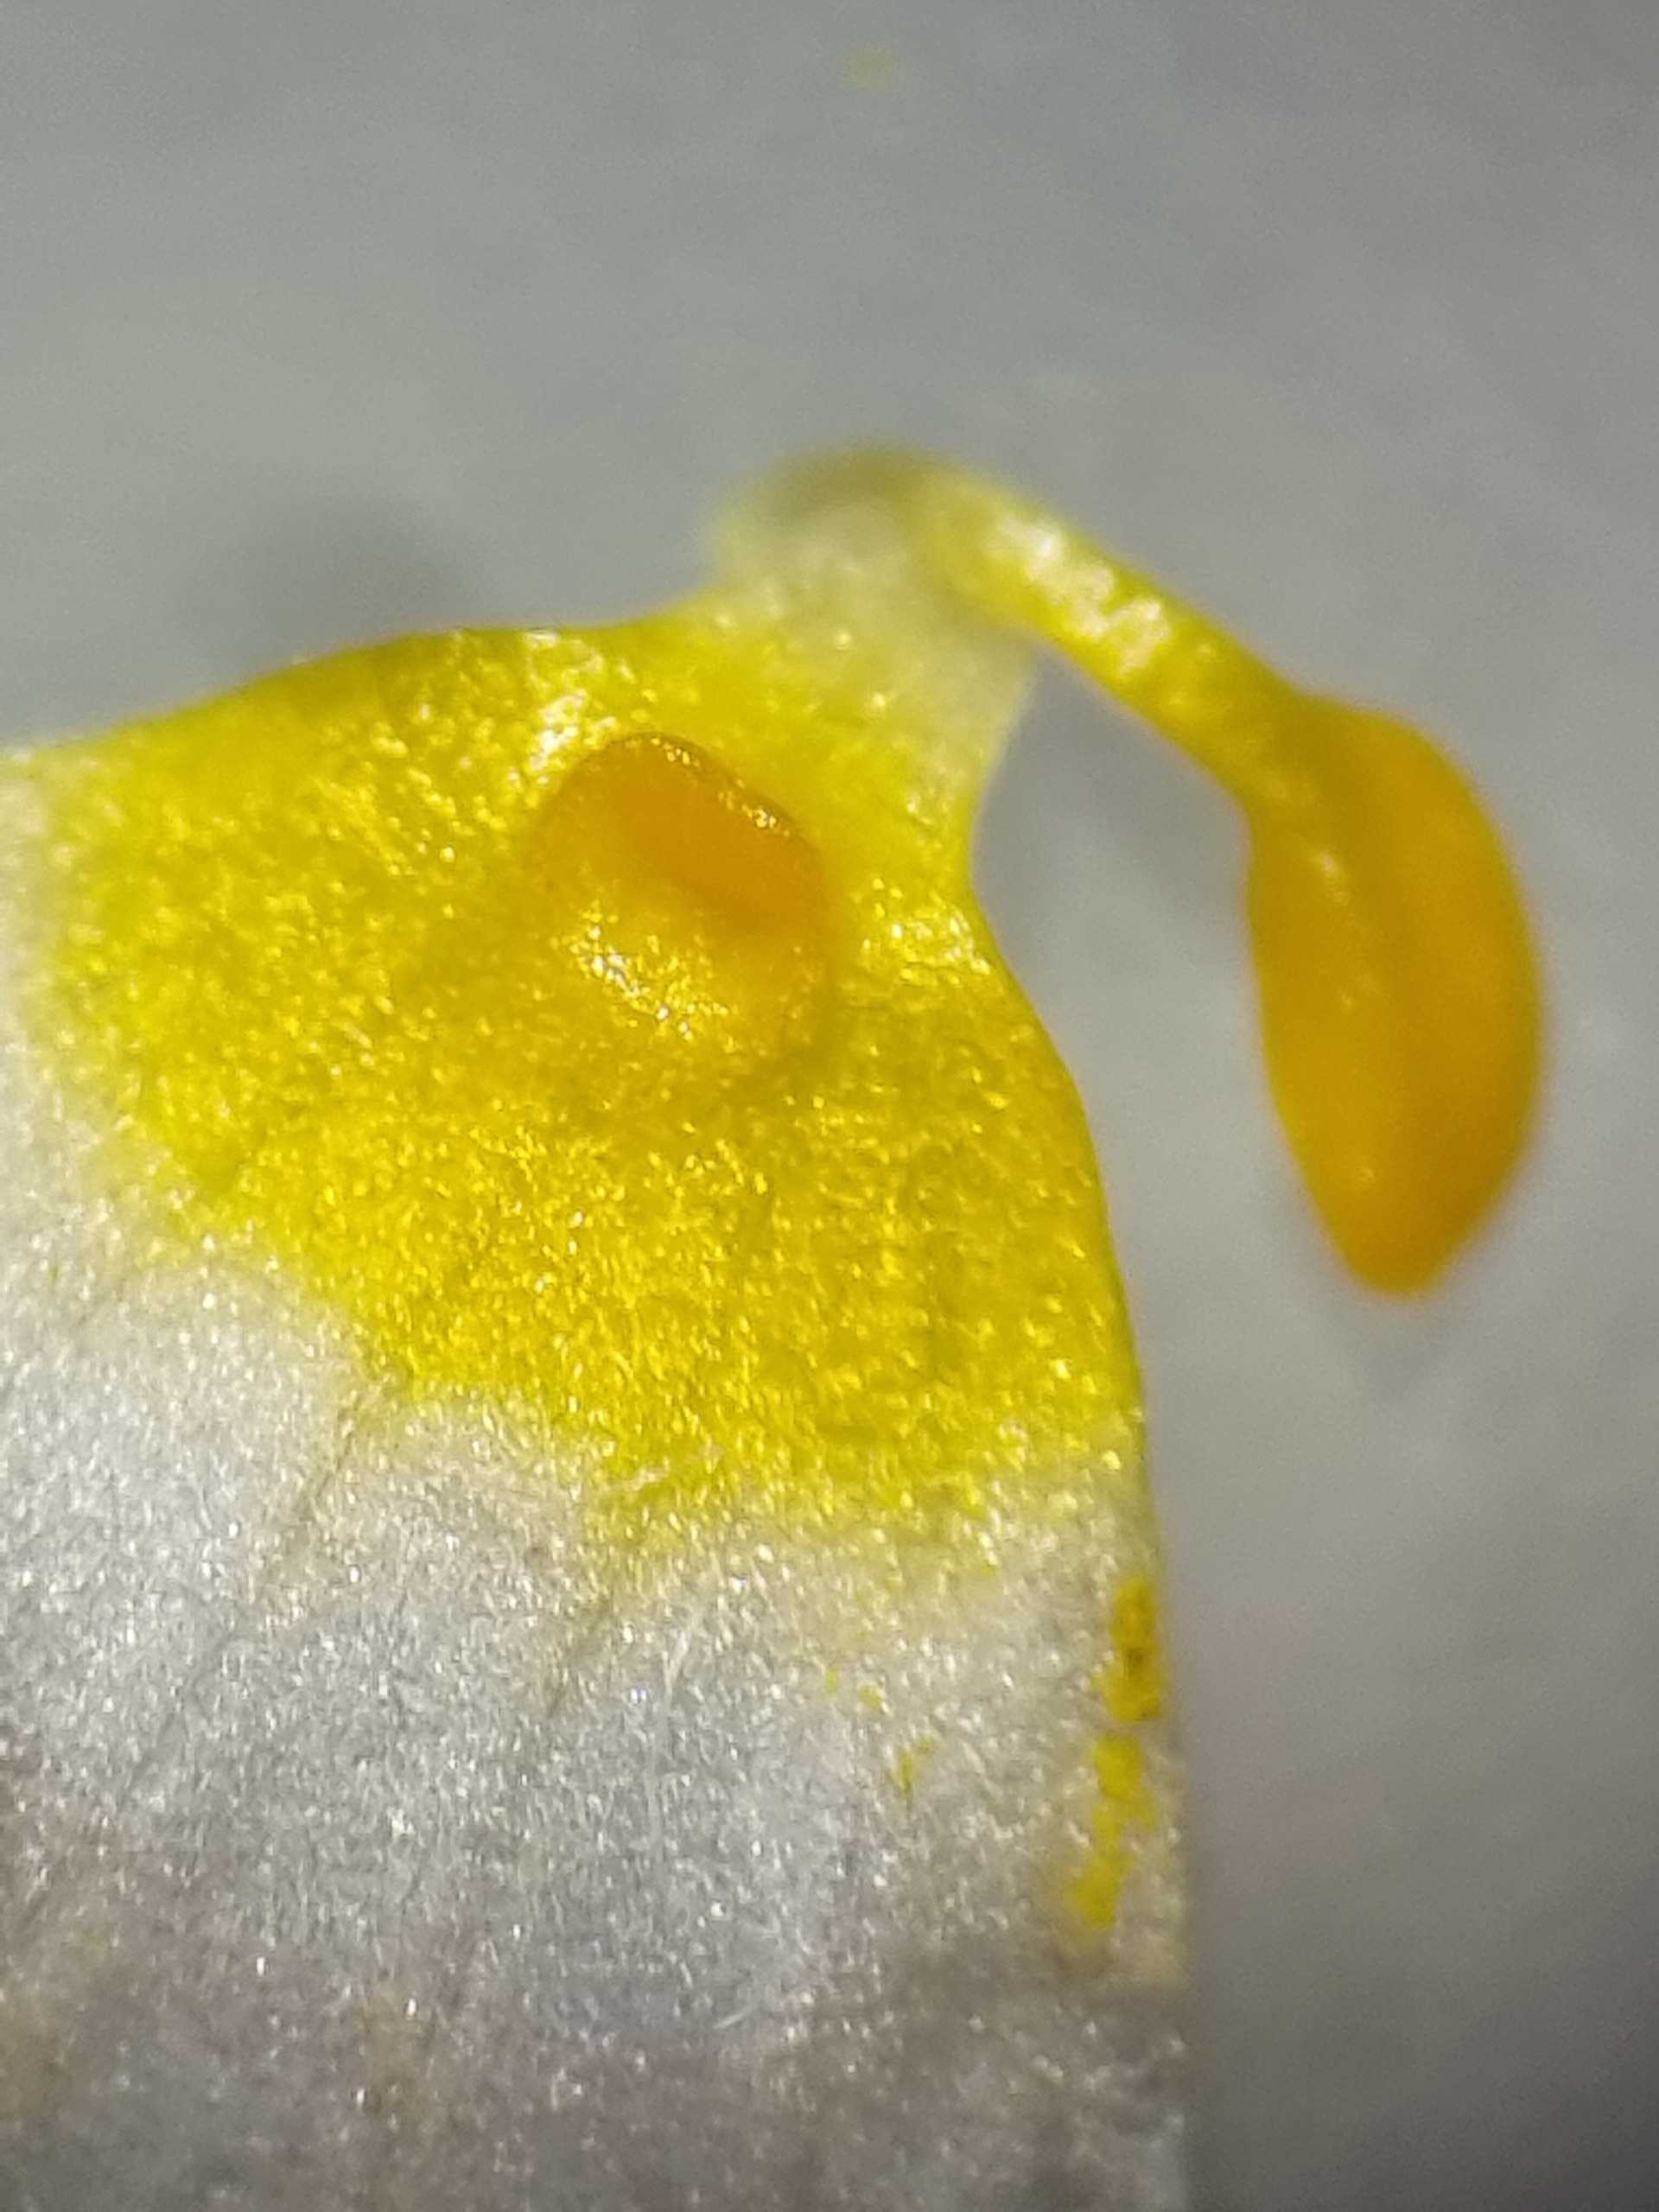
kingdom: Plantae
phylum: Tracheophyta
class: Magnoliopsida
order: Ranunculales
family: Ranunculaceae
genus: Ranunculus
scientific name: Ranunculus peltatus
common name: Strand-vandranunkel
